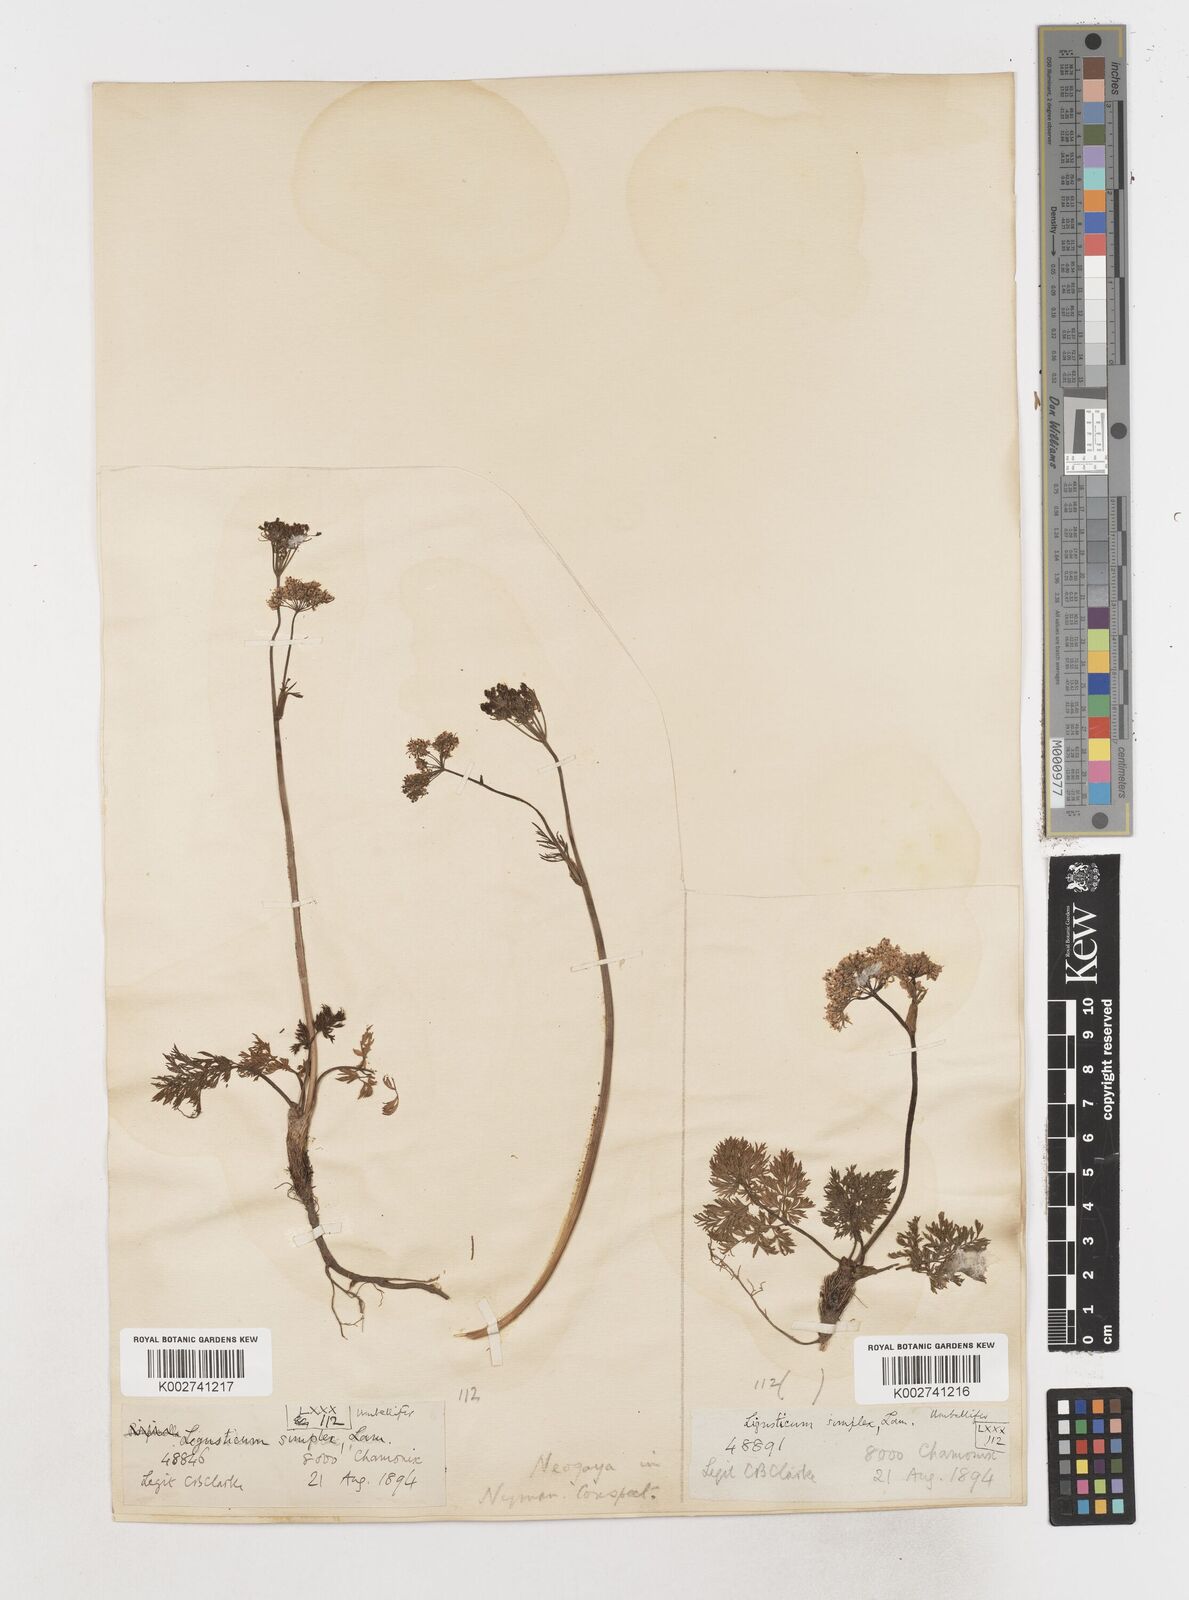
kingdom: Plantae
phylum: Tracheophyta
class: Magnoliopsida
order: Apiales
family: Apiaceae
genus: Pachypleurum
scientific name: Pachypleurum mutellinoides
